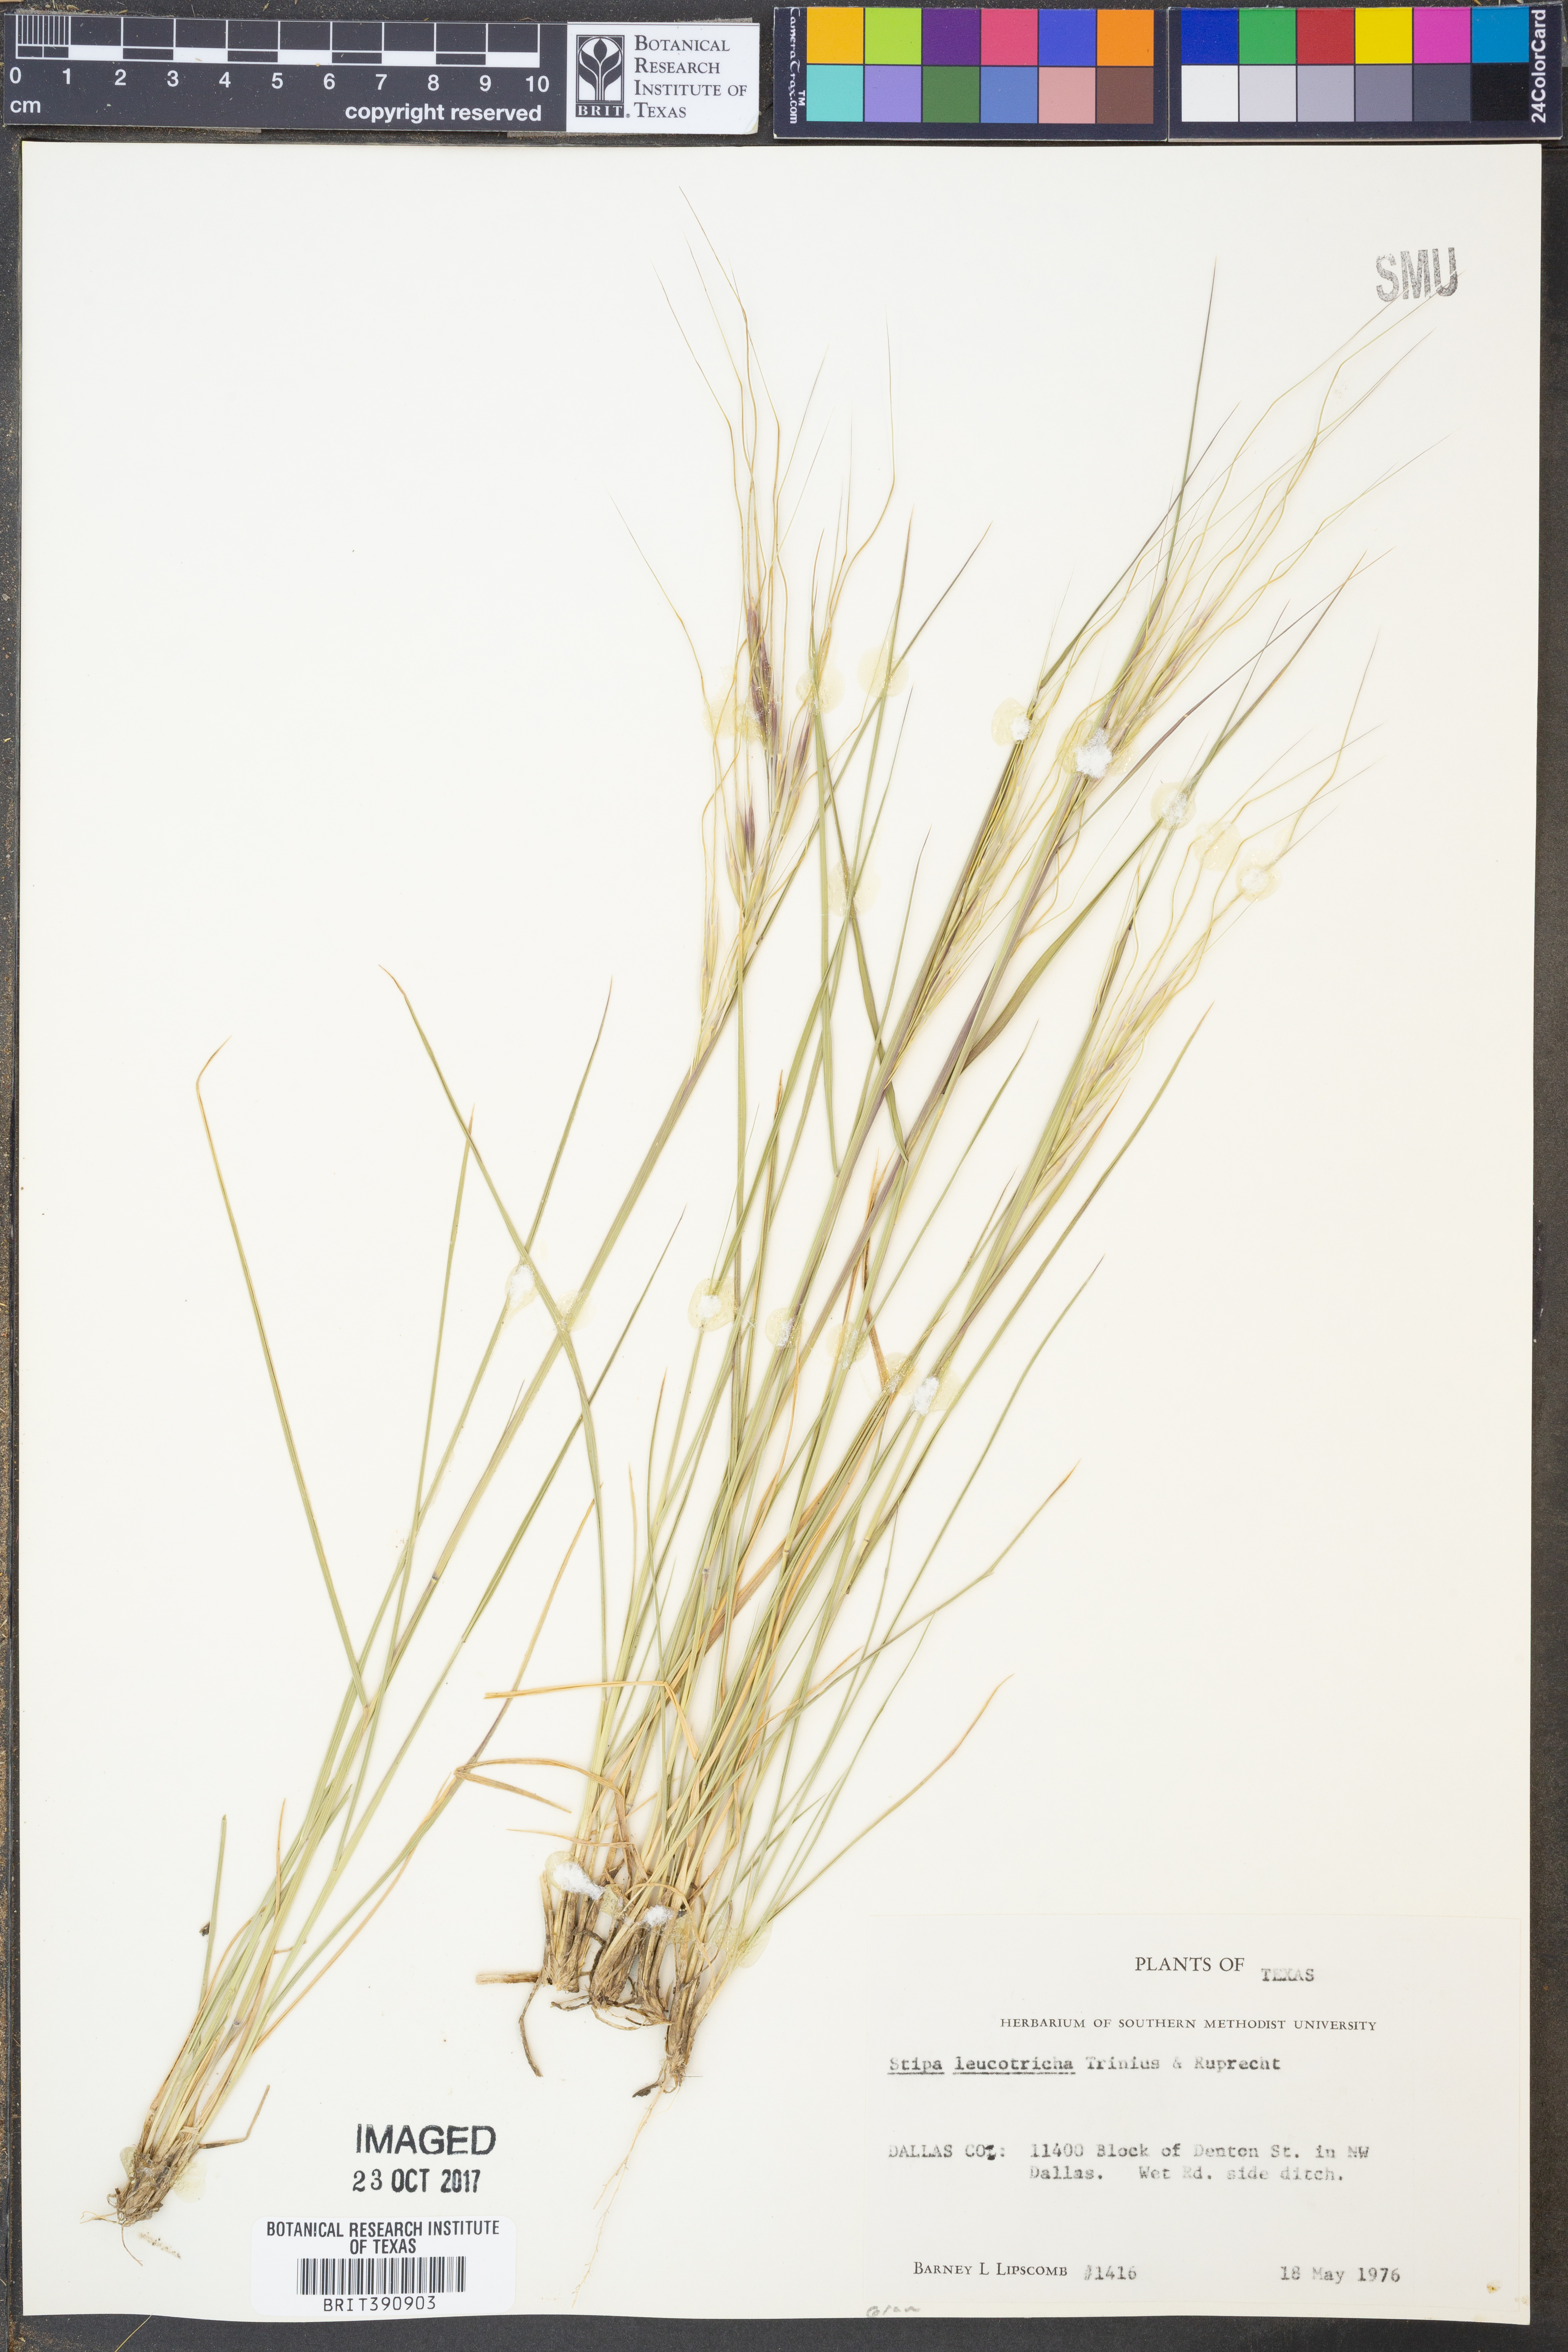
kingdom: Plantae
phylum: Tracheophyta
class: Liliopsida
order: Poales
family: Poaceae
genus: Nassella
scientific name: Nassella leucotricha
